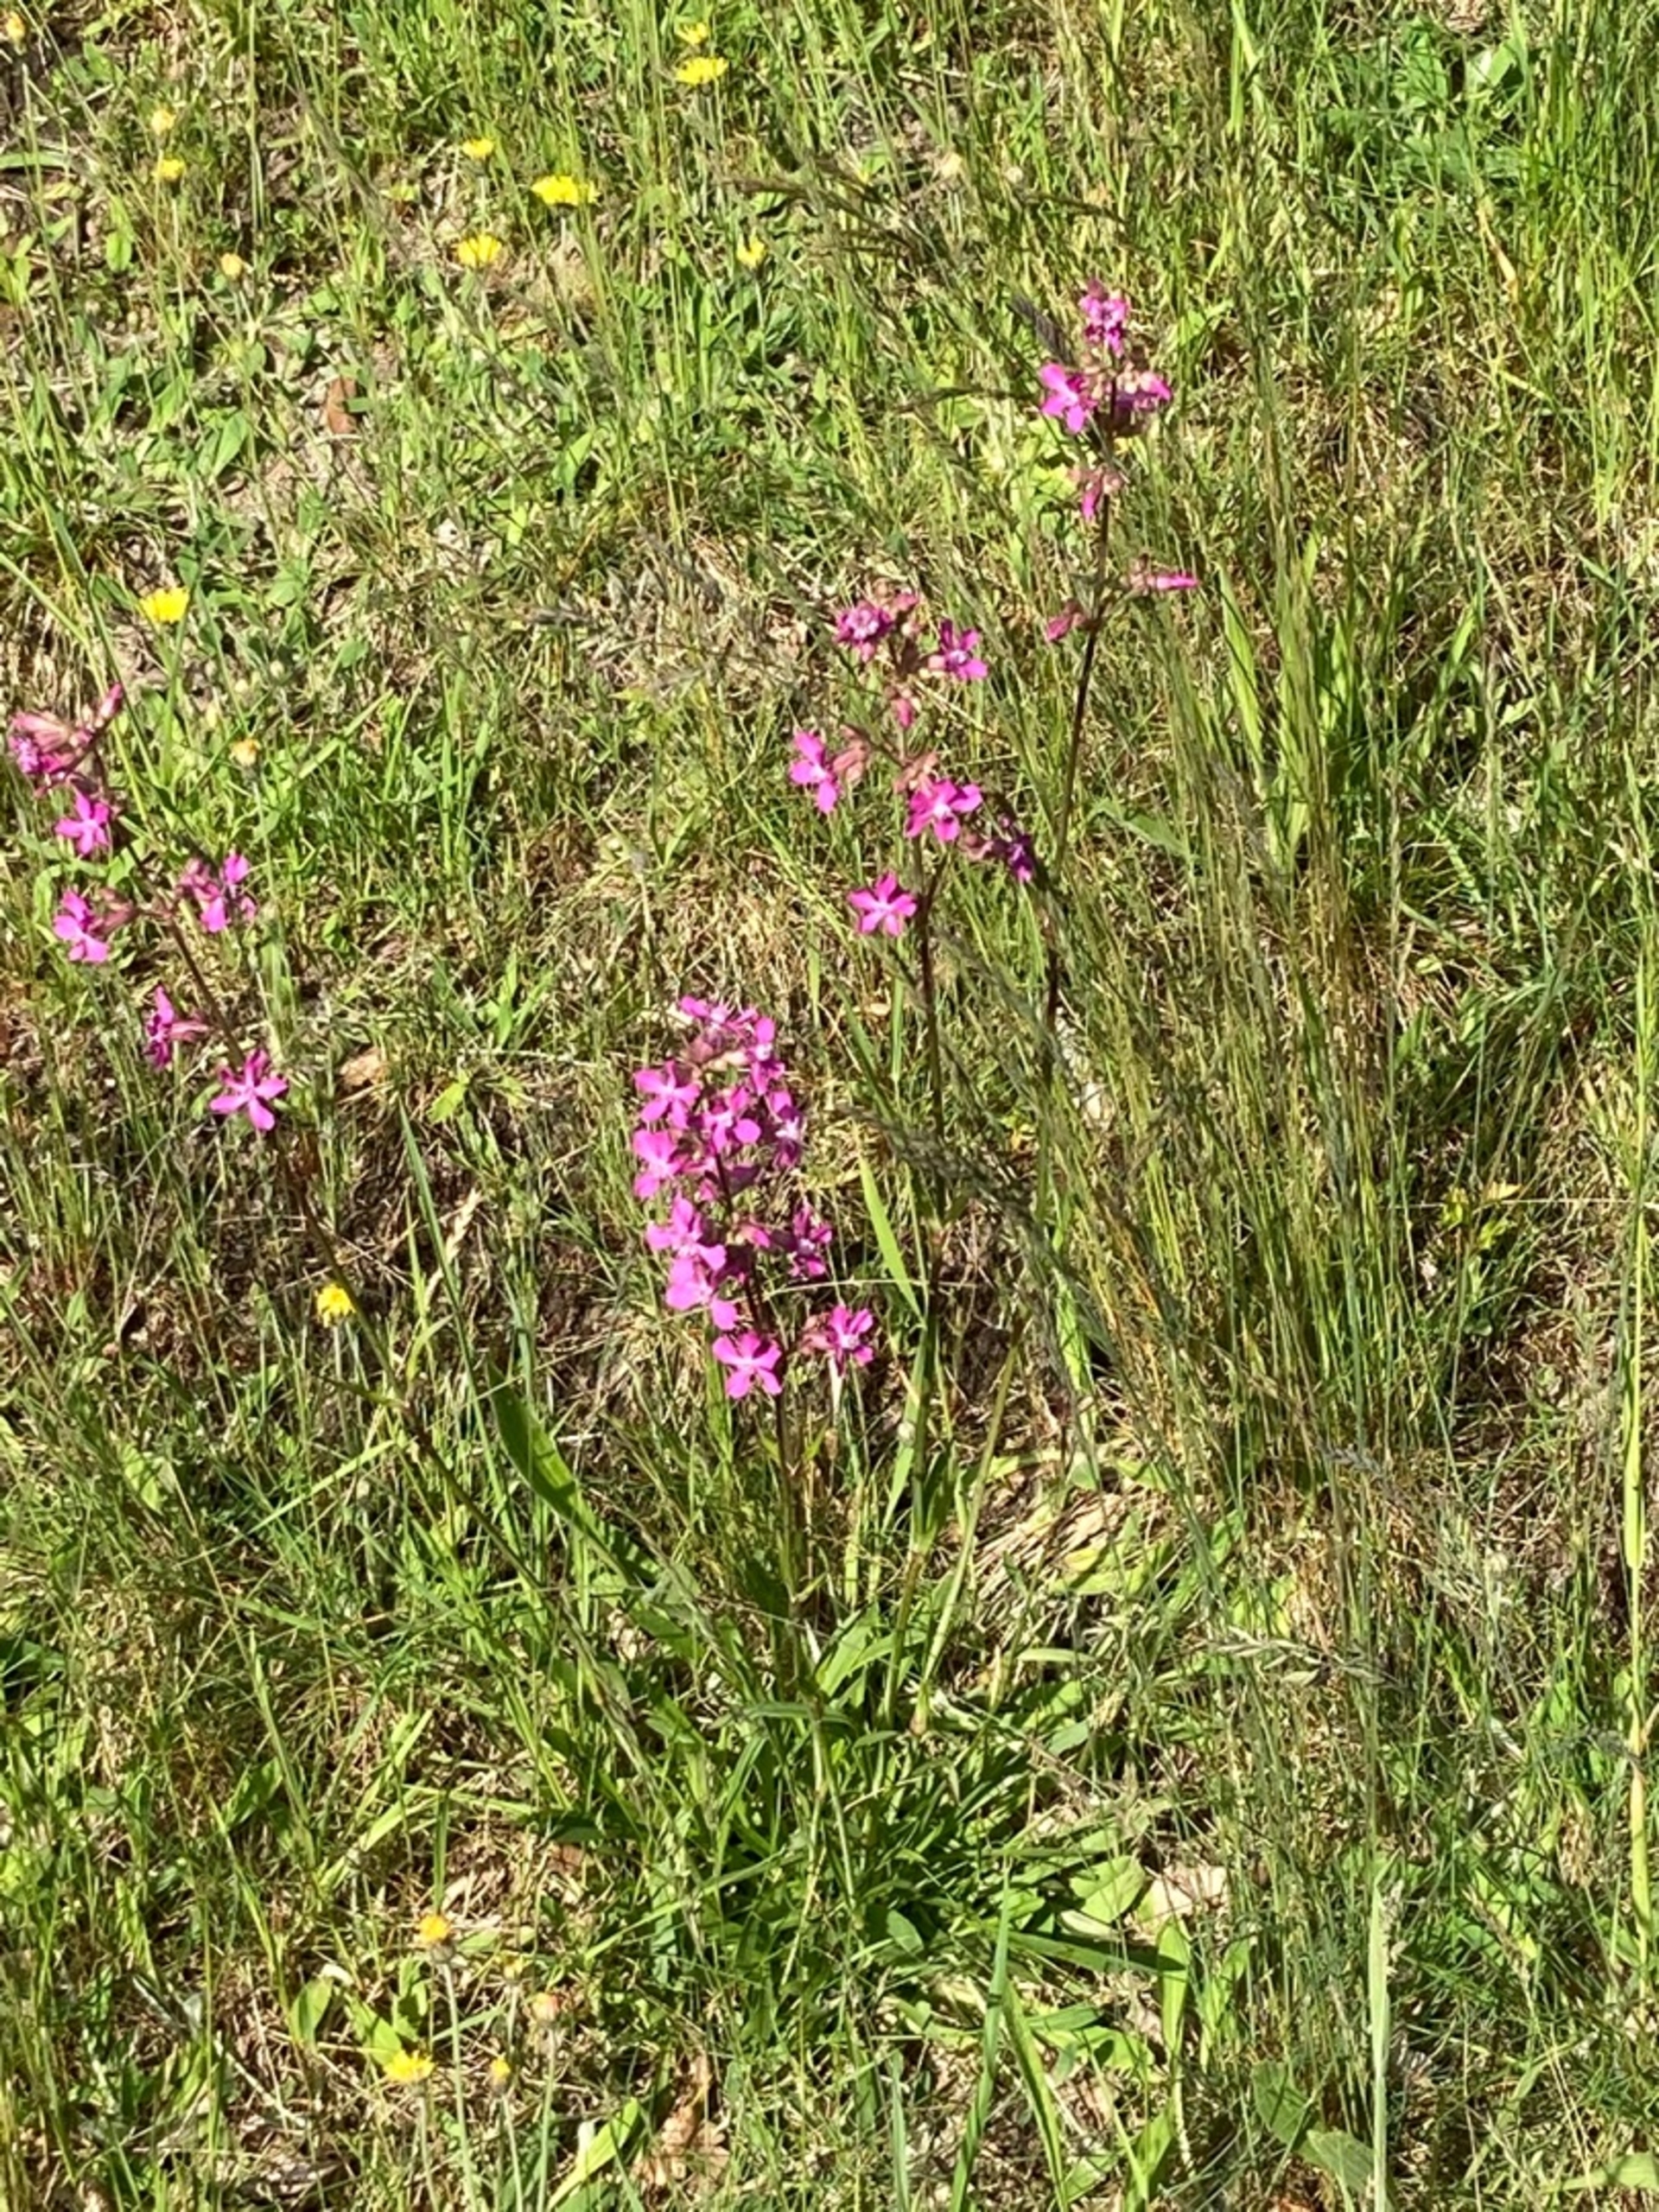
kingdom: Plantae
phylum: Tracheophyta
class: Magnoliopsida
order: Caryophyllales
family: Caryophyllaceae
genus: Viscaria
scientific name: Viscaria vulgaris
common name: Tjærenellike
